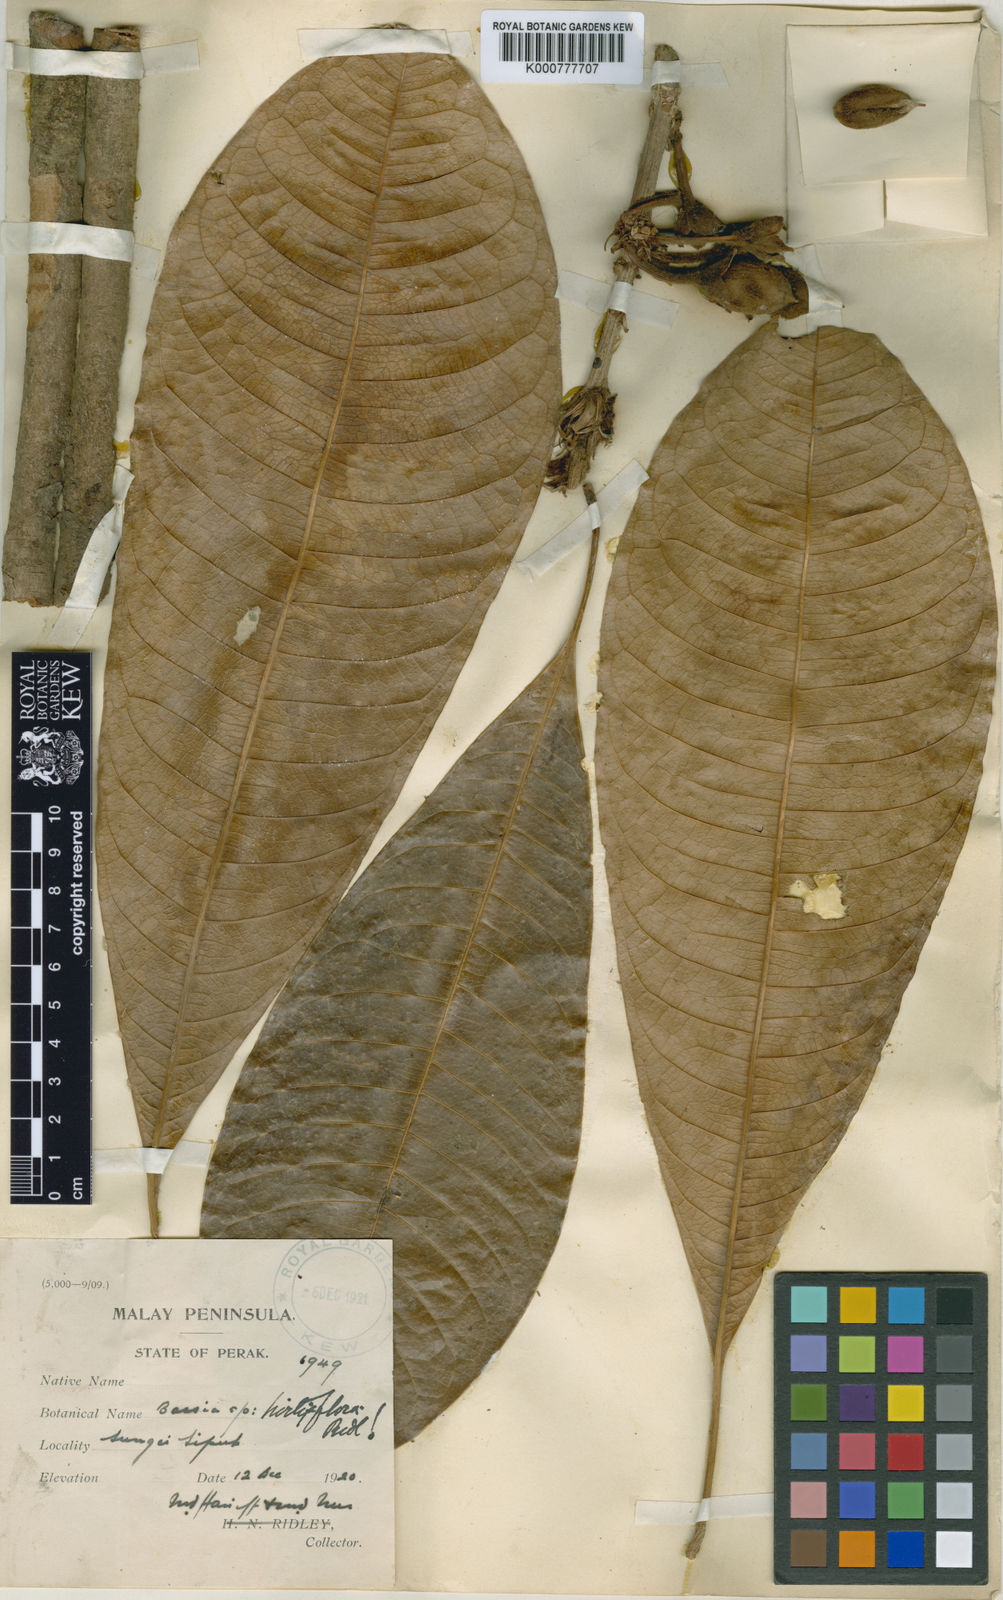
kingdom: Plantae
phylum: Tracheophyta
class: Magnoliopsida
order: Ericales
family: Sapotaceae
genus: Madhuca
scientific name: Madhuca hirtiflora
